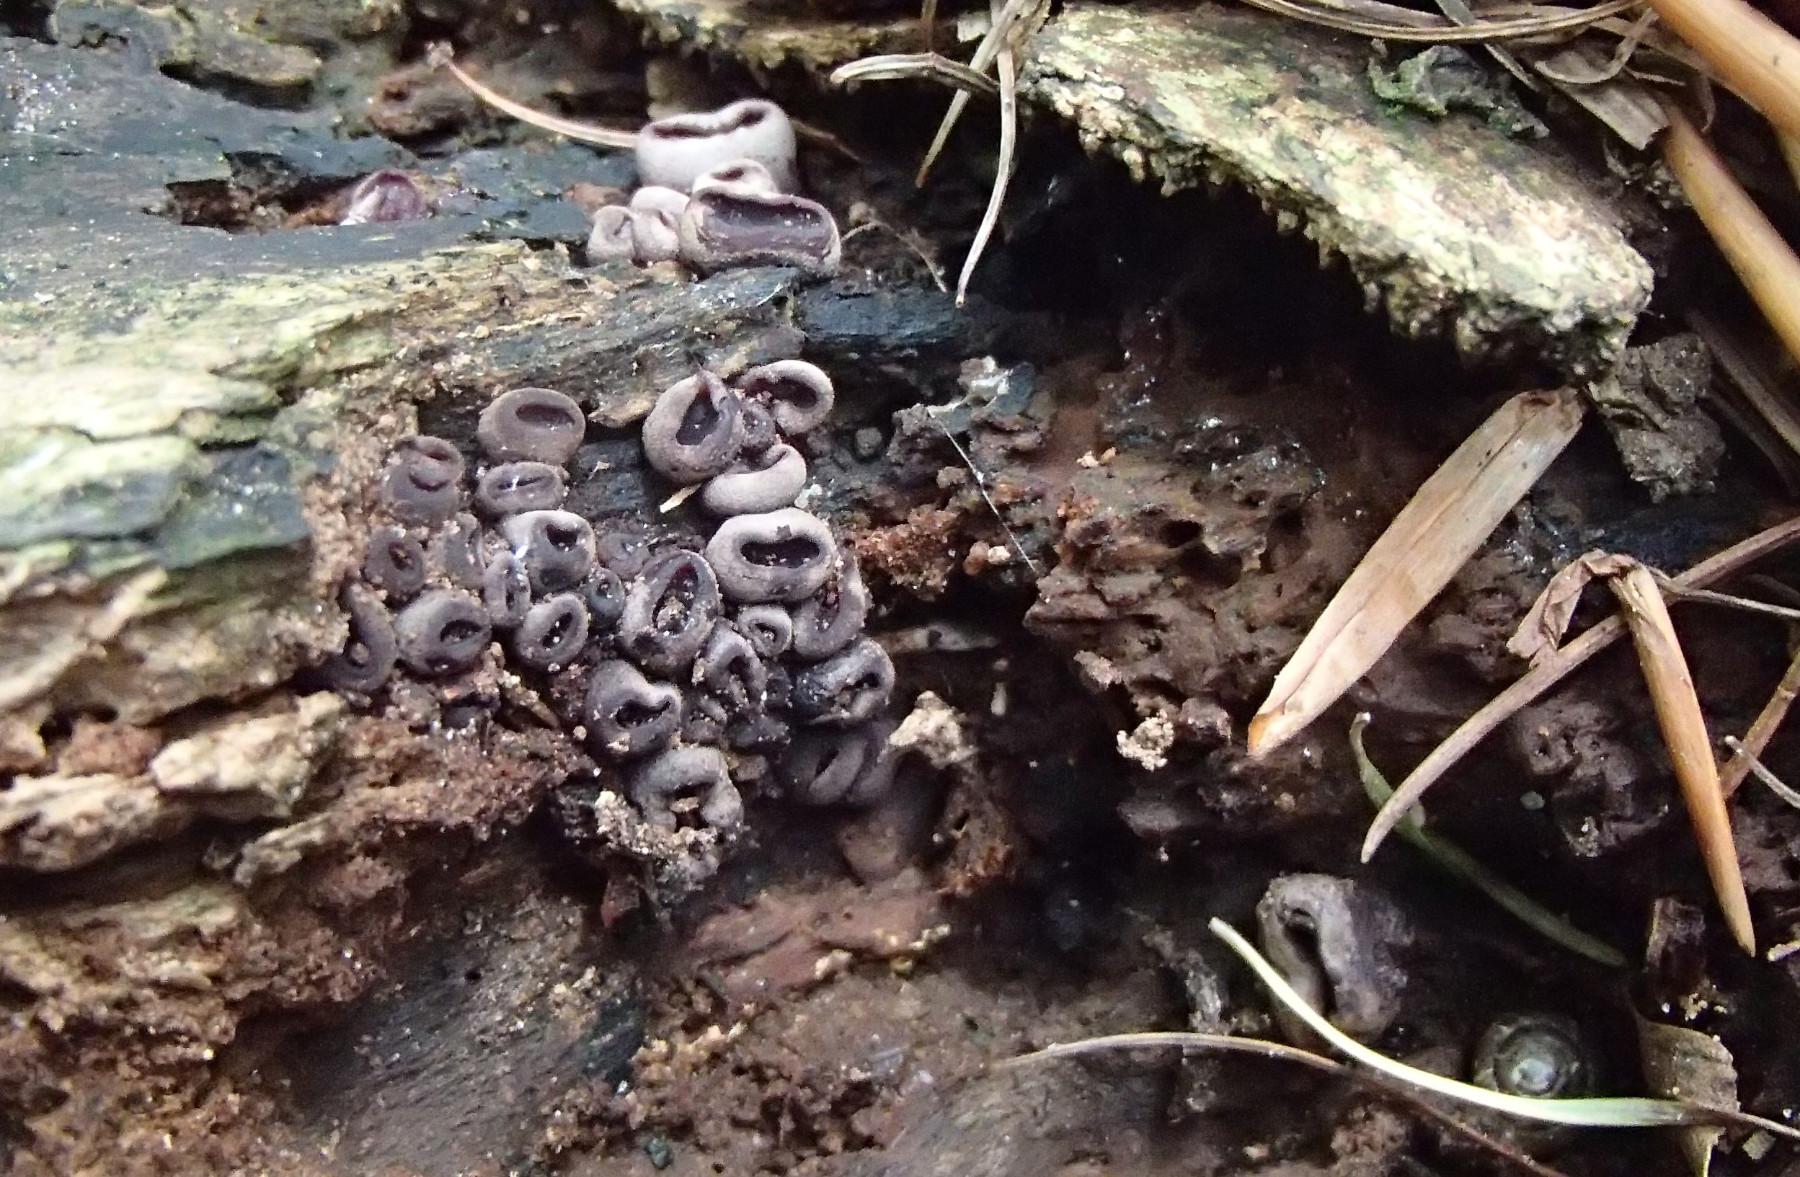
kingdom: Fungi
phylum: Ascomycota
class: Leotiomycetes
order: Helotiales
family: Gelatinodiscaceae
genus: Ascocoryne
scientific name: Ascocoryne
